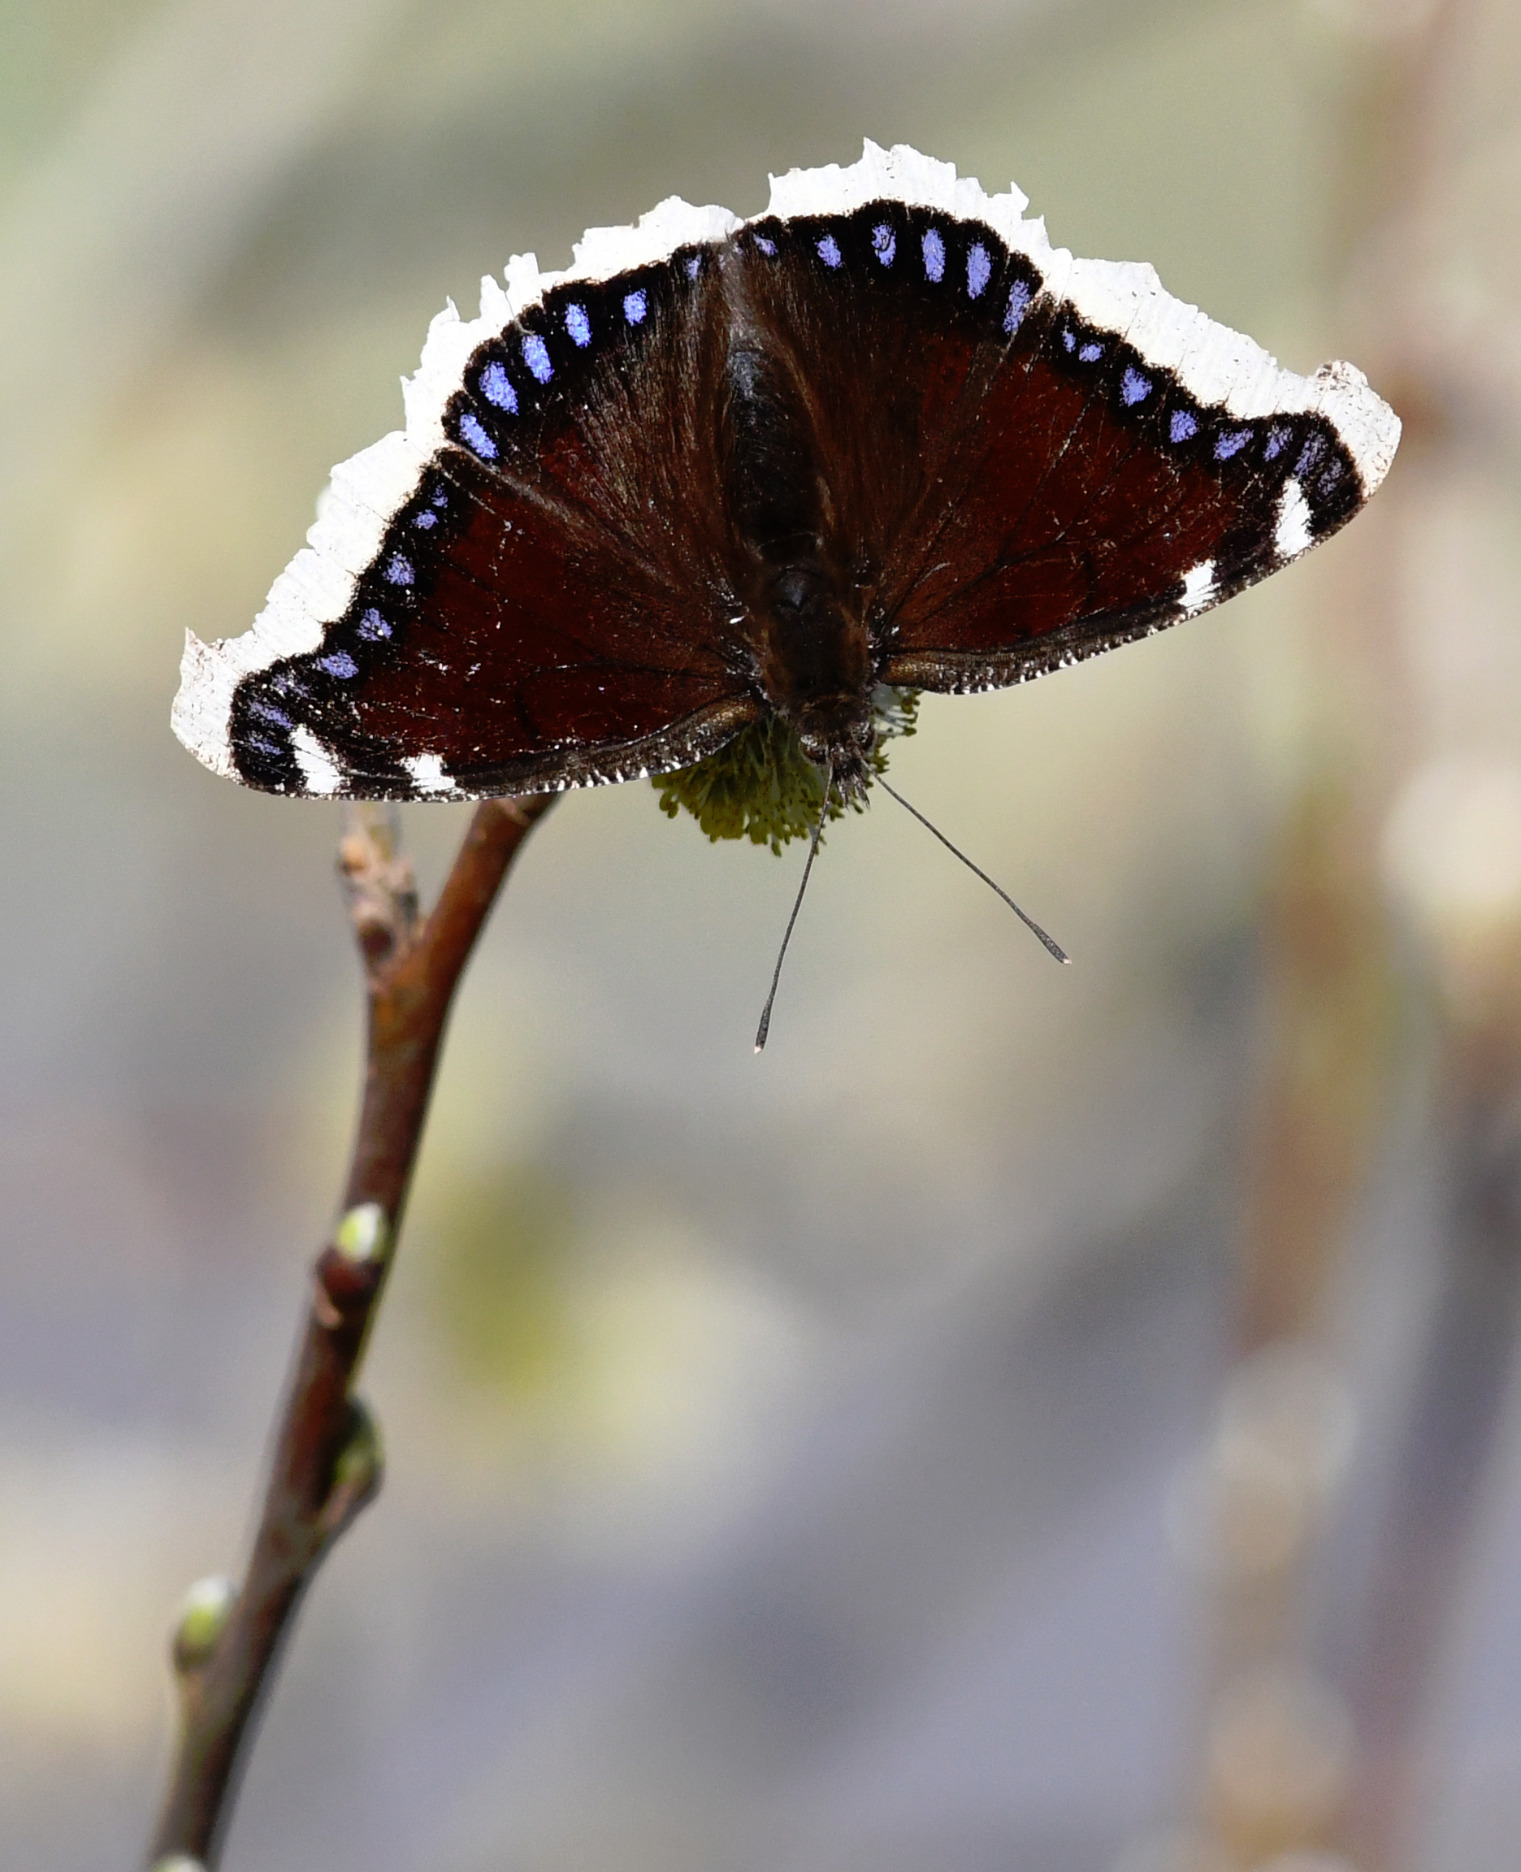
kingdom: Animalia
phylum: Arthropoda
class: Insecta
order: Lepidoptera
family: Nymphalidae
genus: Nymphalis
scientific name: Nymphalis antiopa
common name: Sørgekåbe
